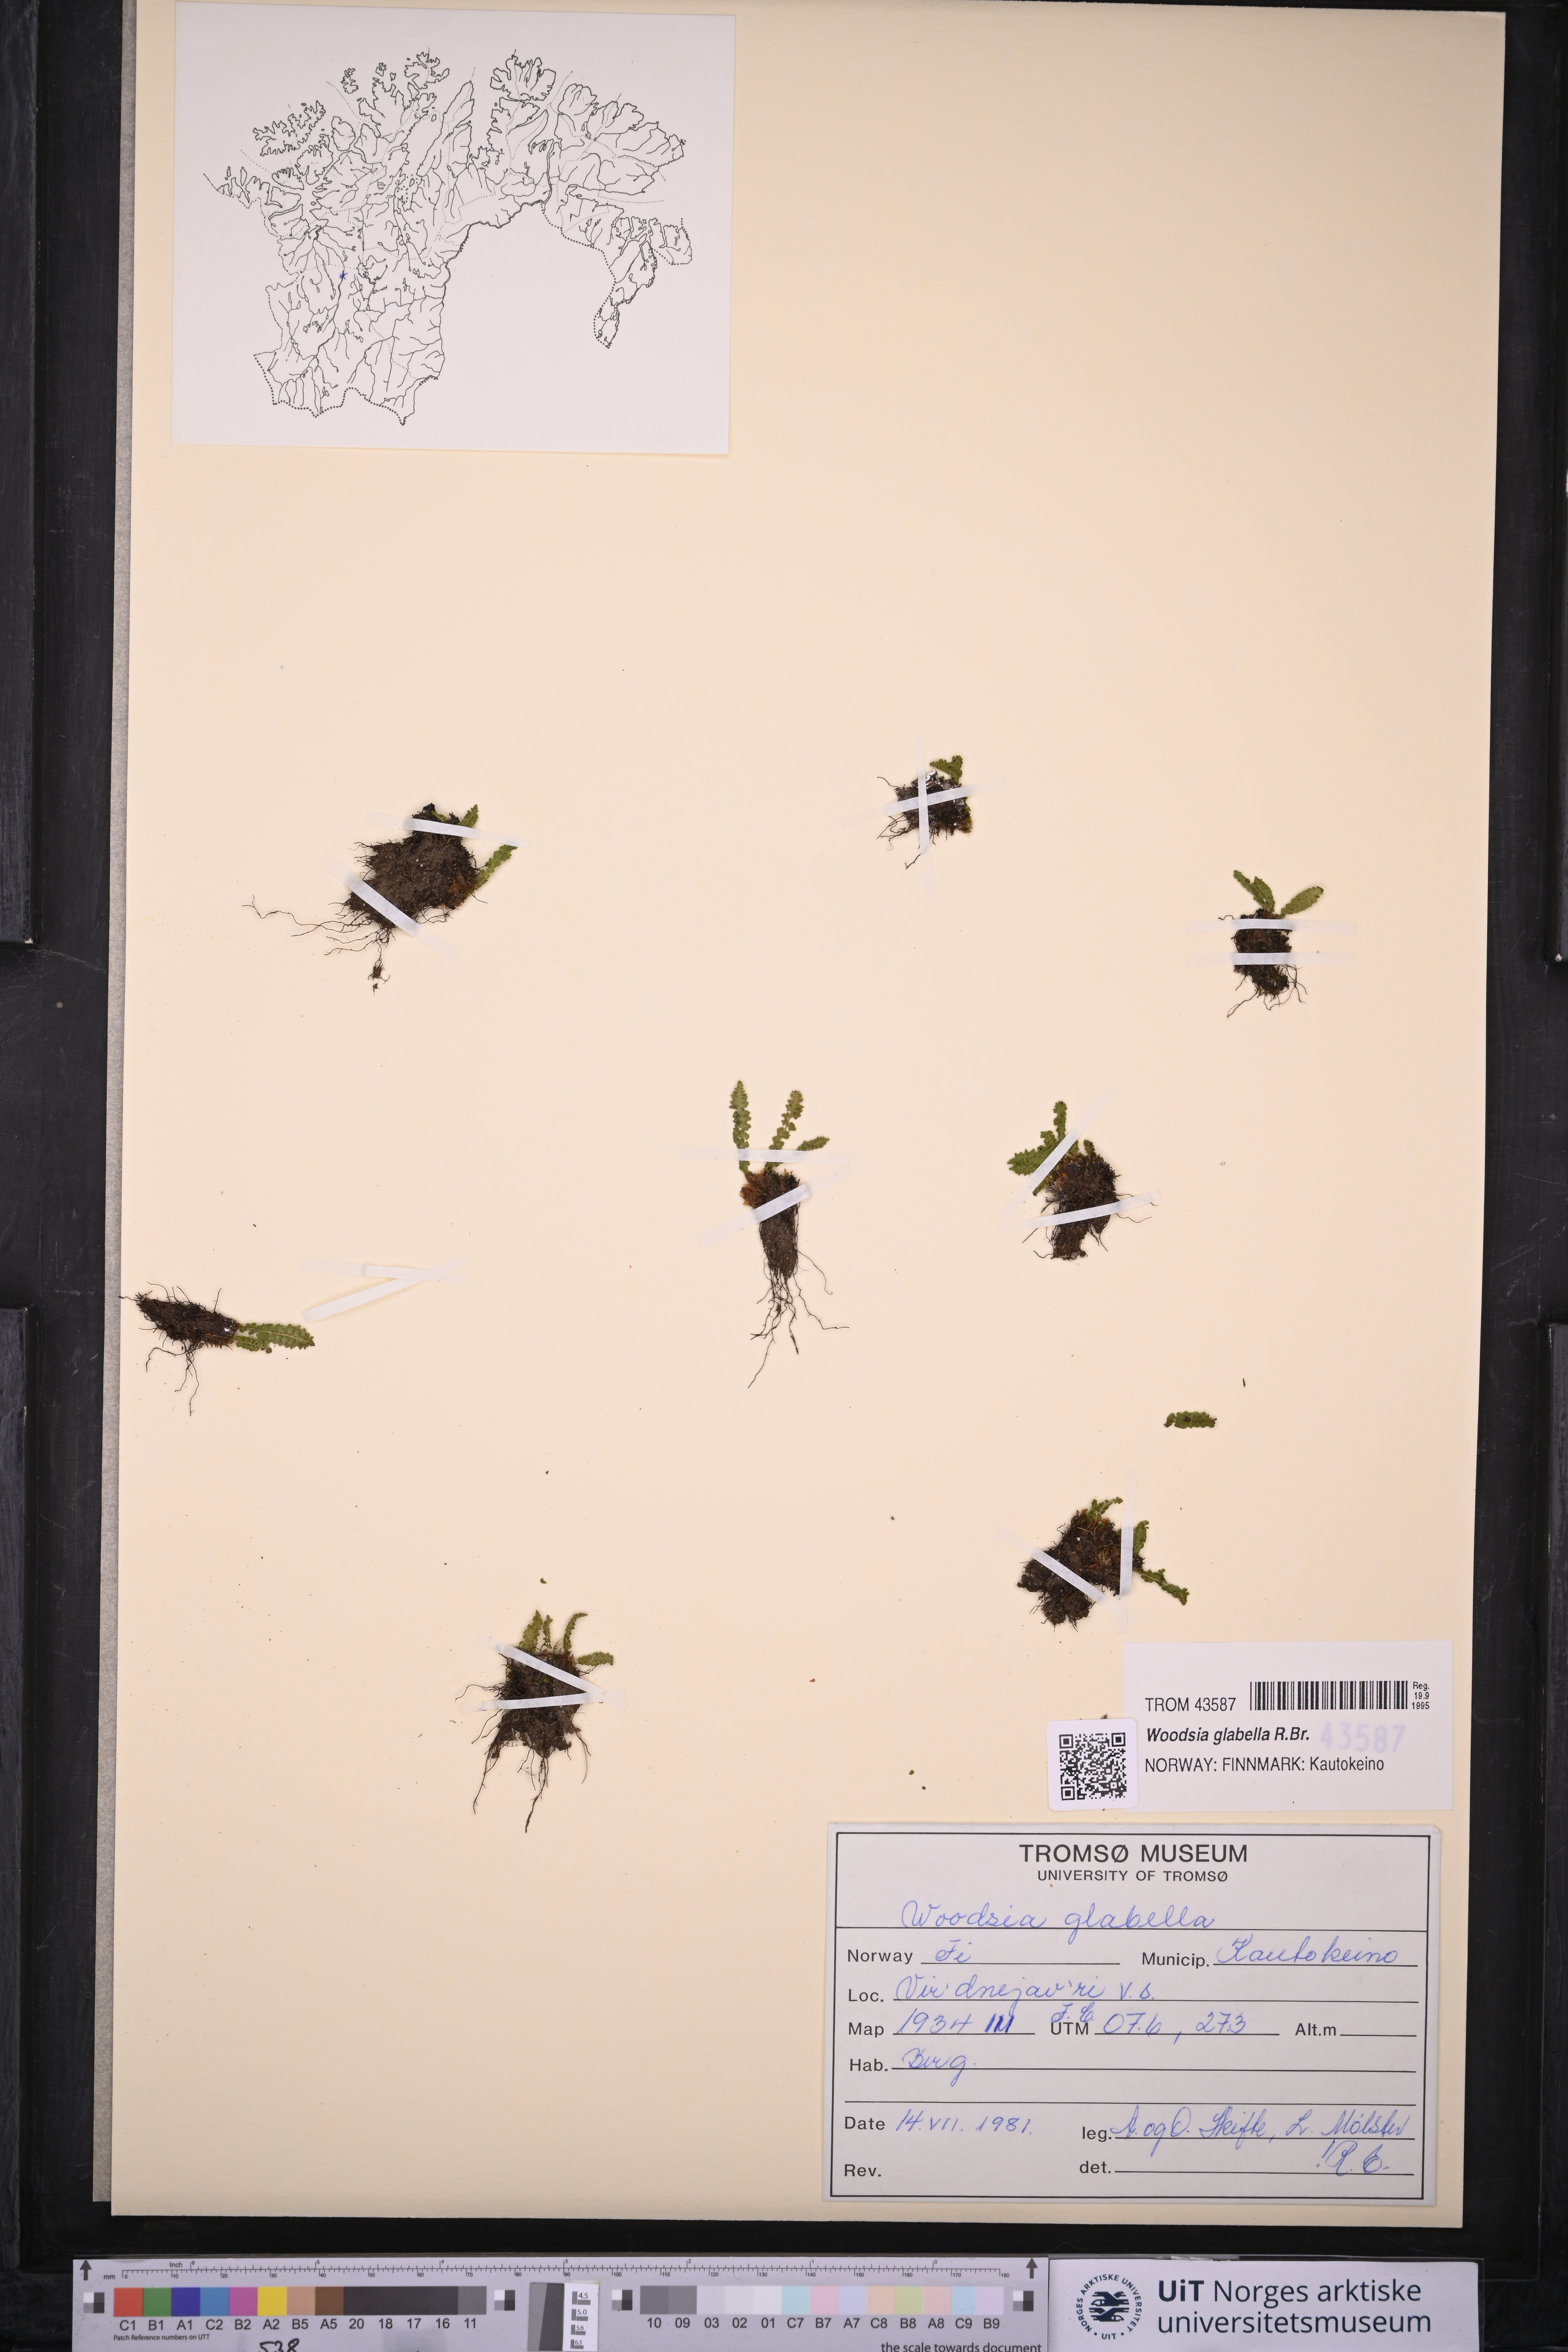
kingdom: Plantae
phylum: Tracheophyta
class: Polypodiopsida
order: Polypodiales
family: Woodsiaceae
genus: Woodsia
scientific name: Woodsia glabella
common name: Smooth woodsia
